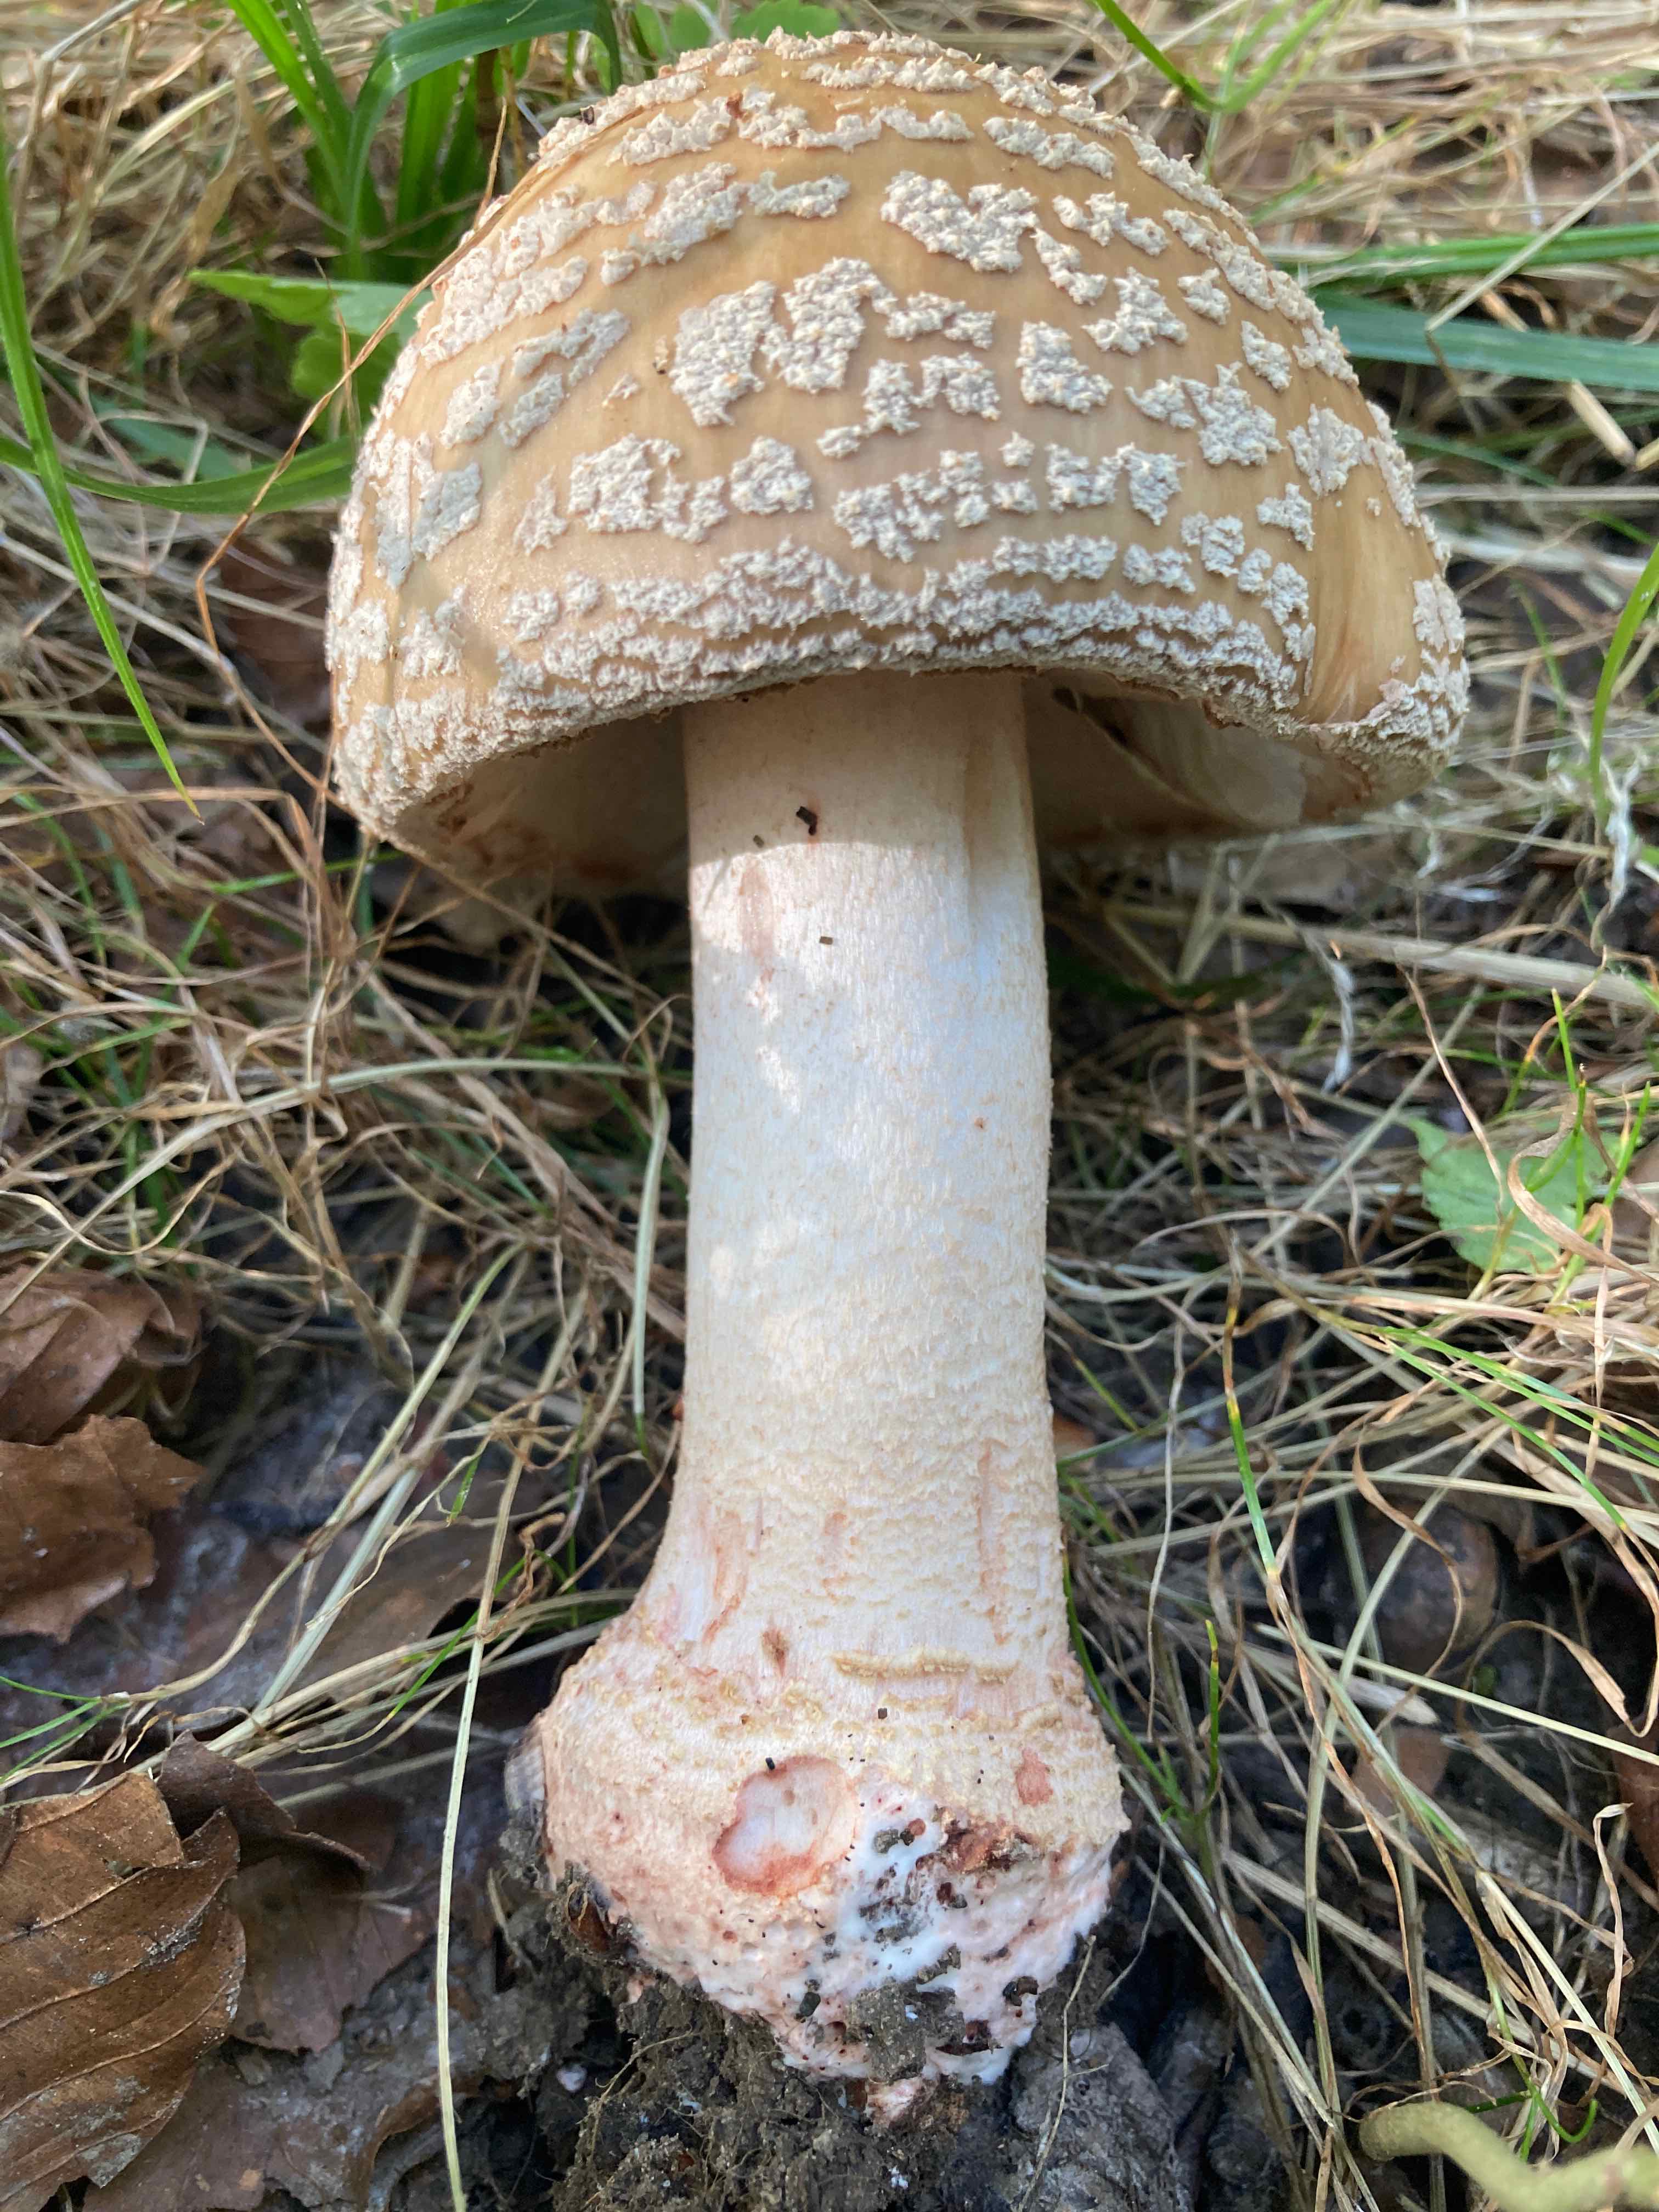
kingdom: Fungi
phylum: Basidiomycota
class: Agaricomycetes
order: Agaricales
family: Amanitaceae
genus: Amanita
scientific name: Amanita rubescens
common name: rødmende fluesvamp
